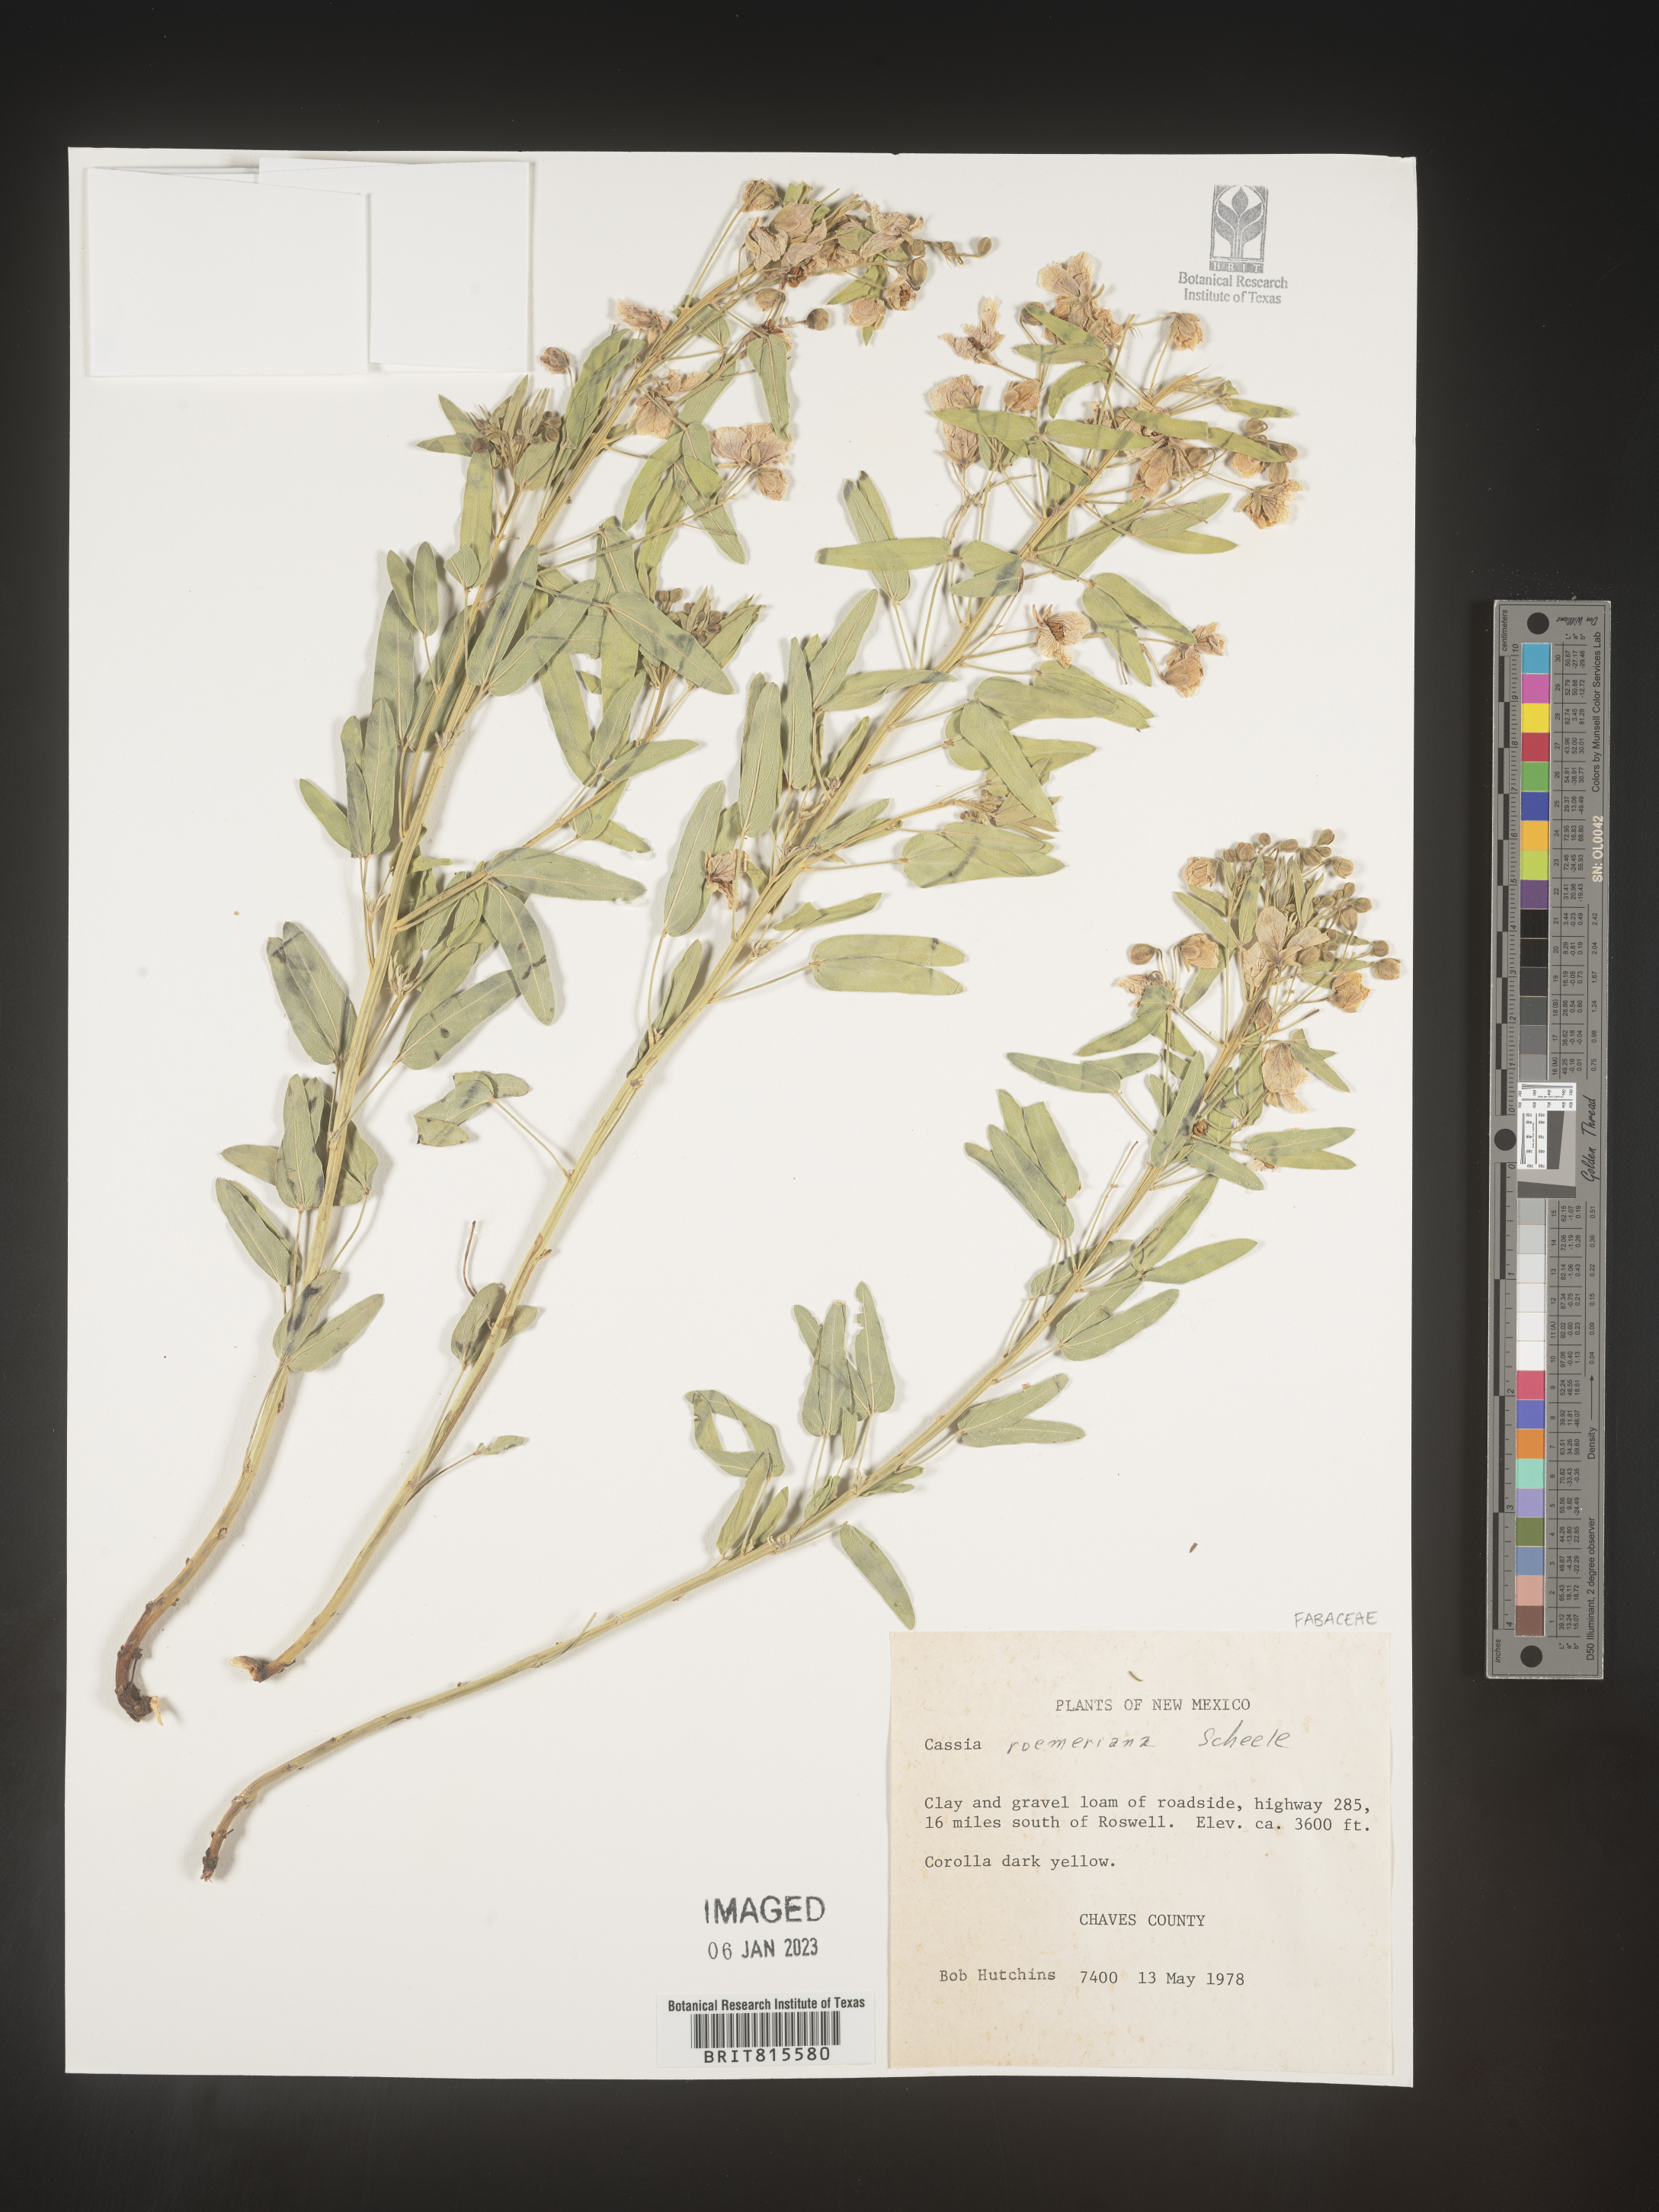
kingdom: Plantae
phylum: Tracheophyta
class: Magnoliopsida
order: Fabales
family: Fabaceae
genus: Cassia
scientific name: Cassia
